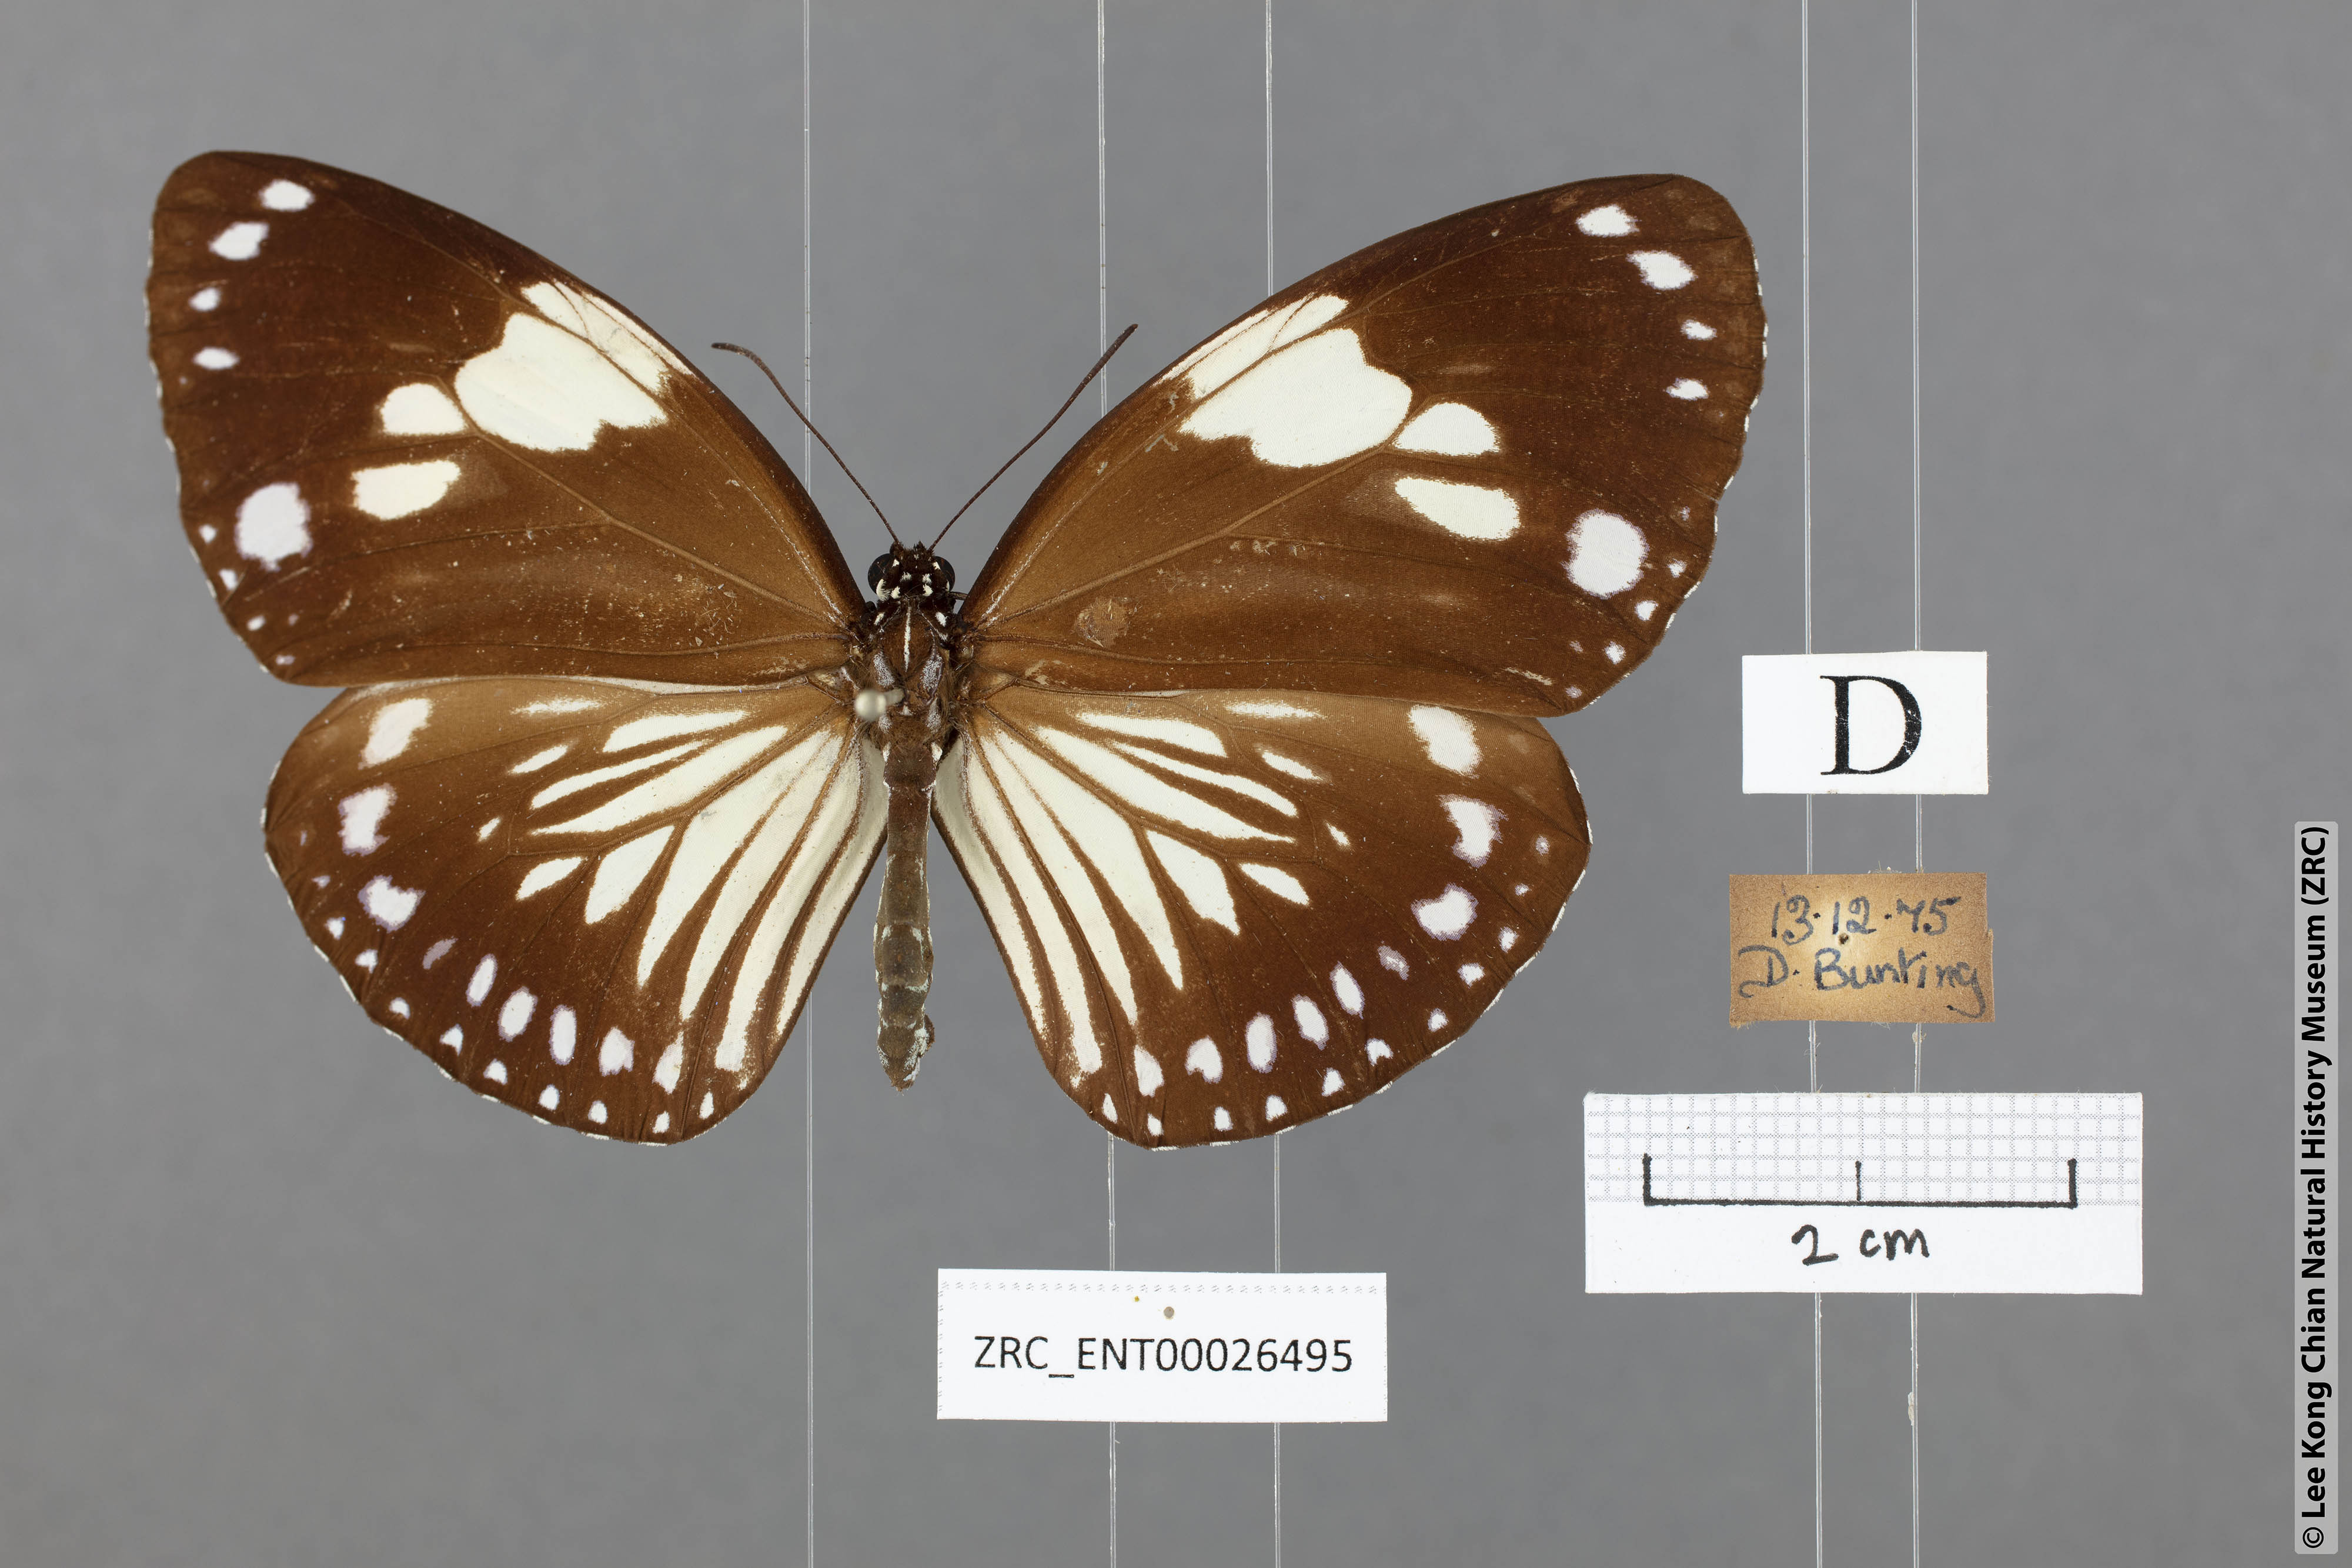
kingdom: Animalia
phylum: Arthropoda
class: Insecta
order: Lepidoptera
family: Nymphalidae
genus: Euploea
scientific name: Euploea radamanthus
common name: Magpie crow butterfly
